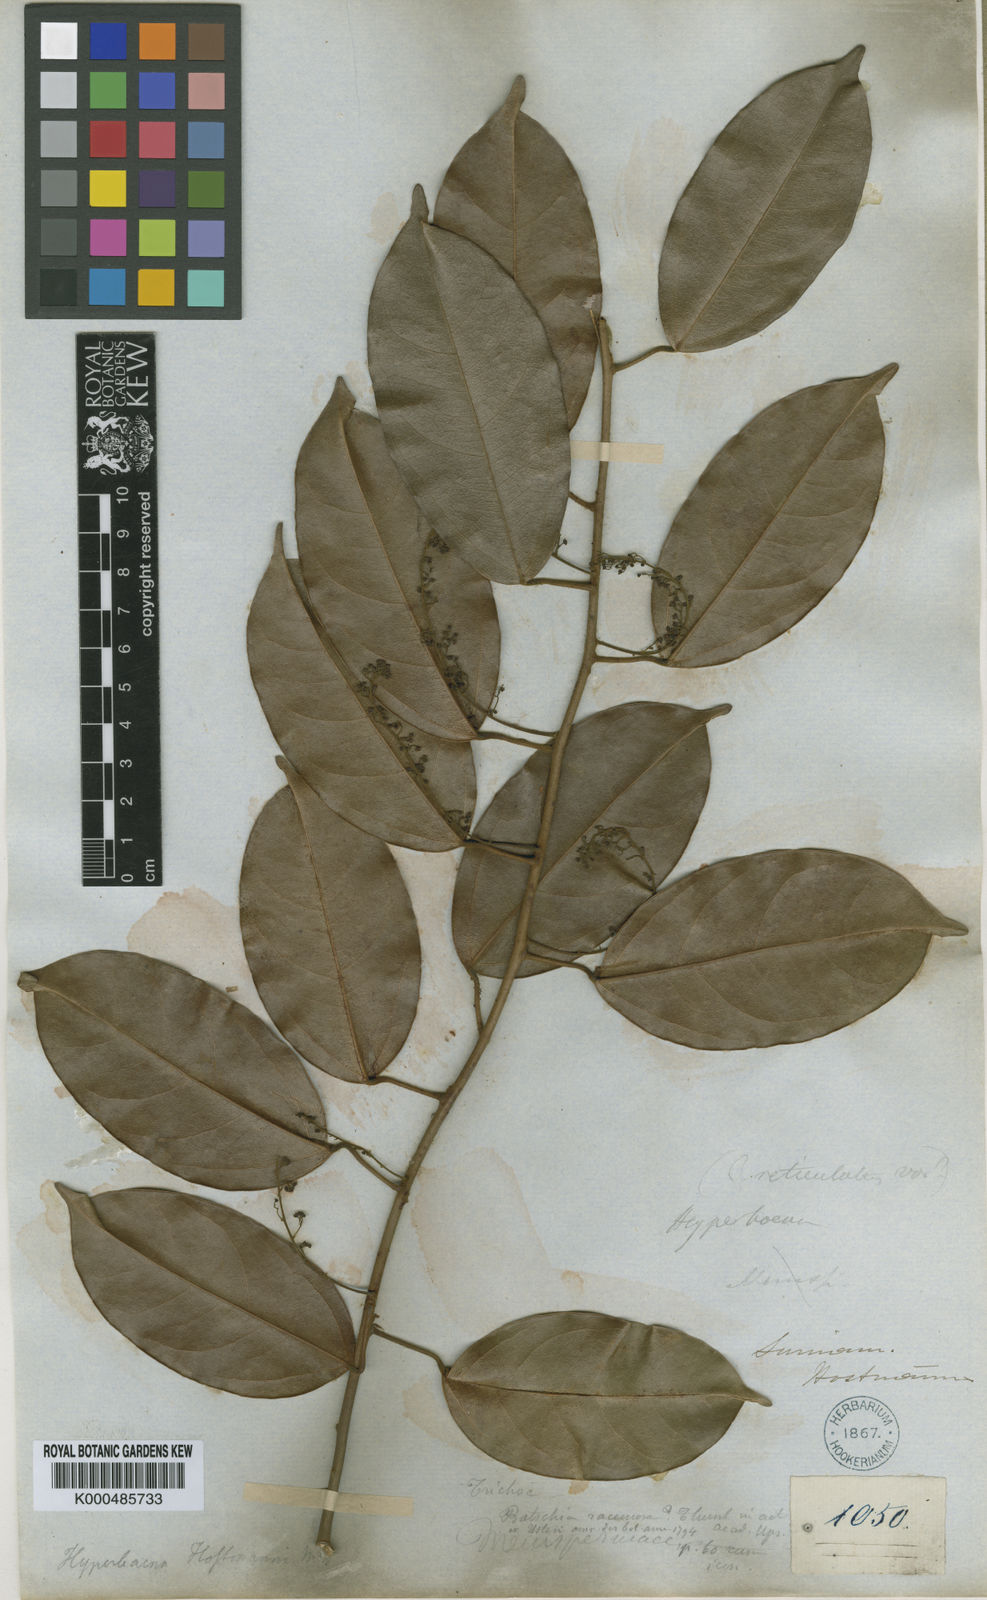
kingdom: Plantae
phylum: Tracheophyta
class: Magnoliopsida
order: Ranunculales
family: Menispermaceae
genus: Hyperbaena
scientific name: Hyperbaena domingensis
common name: Forest snakevine
